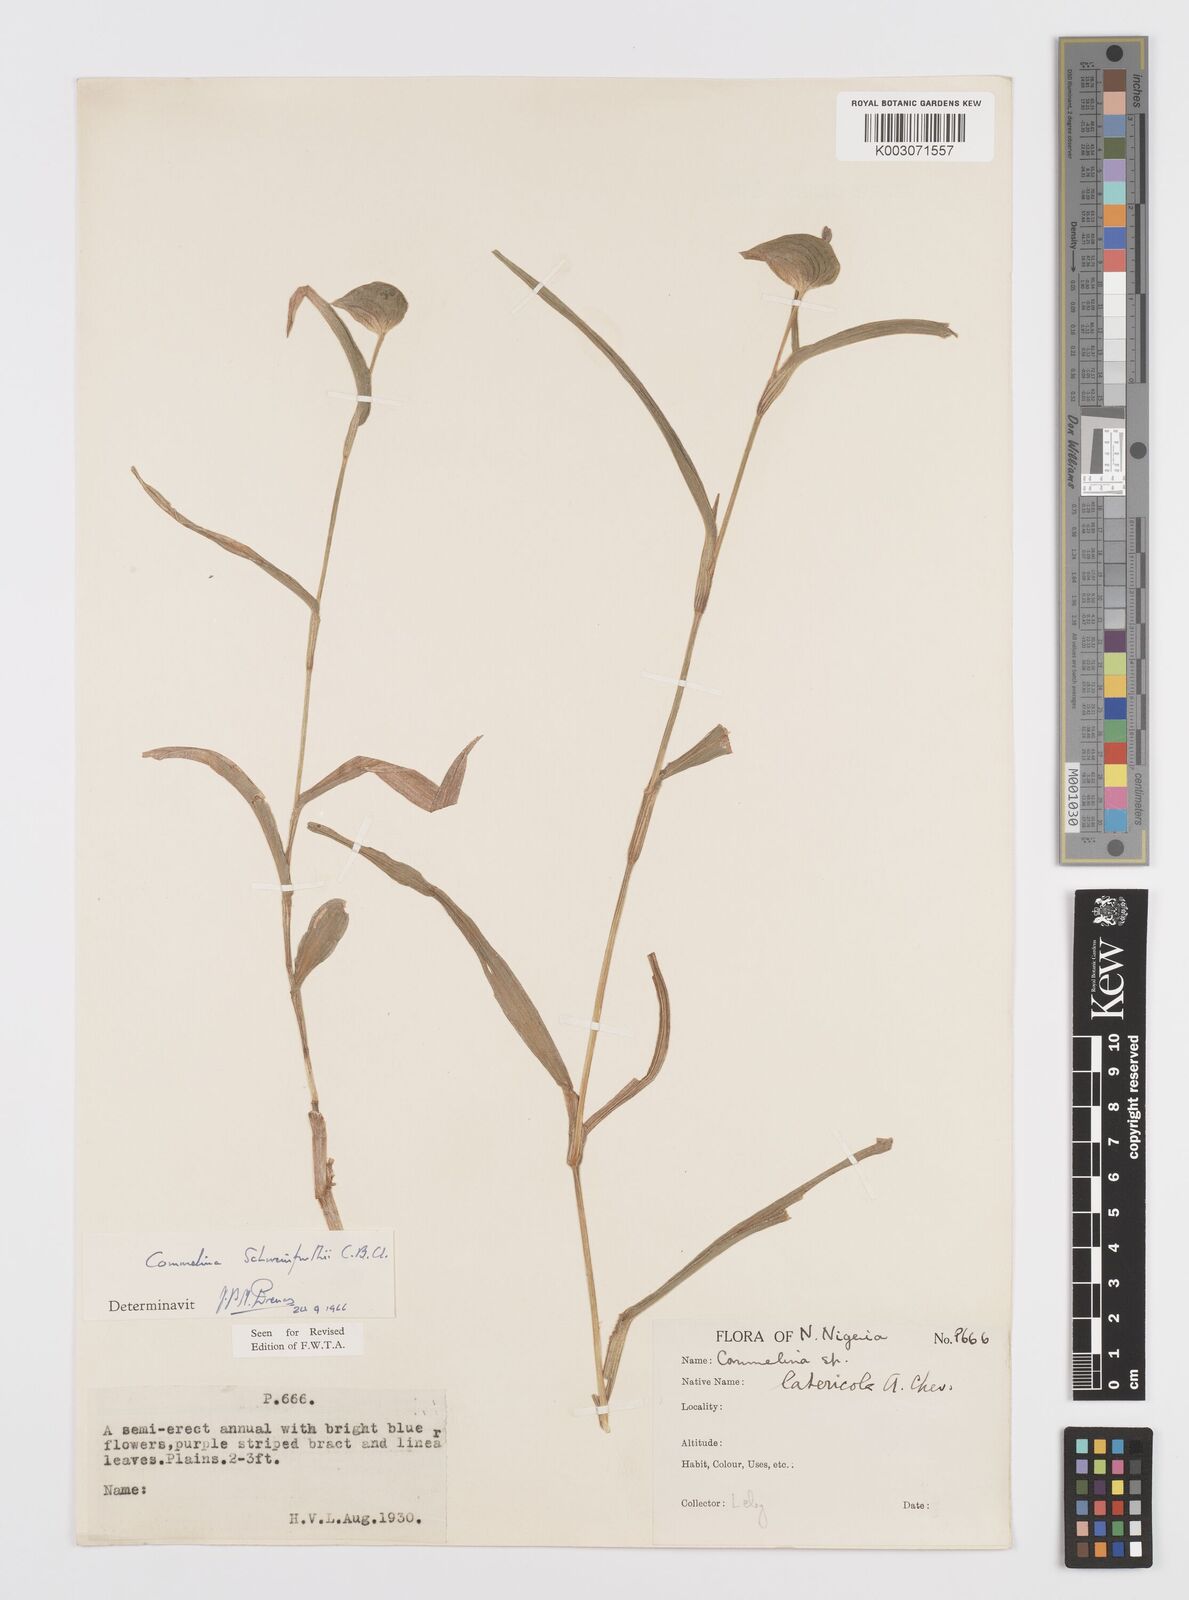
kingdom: Plantae
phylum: Tracheophyta
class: Liliopsida
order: Commelinales
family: Commelinaceae
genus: Commelina
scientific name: Commelina schweinfurthii
